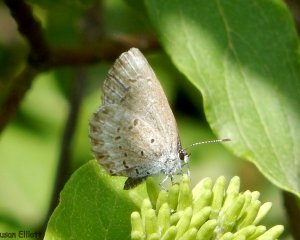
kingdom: Animalia
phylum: Arthropoda
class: Insecta
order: Lepidoptera
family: Lycaenidae
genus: Celastrina
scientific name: Celastrina lucia
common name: Northern Spring Azure
